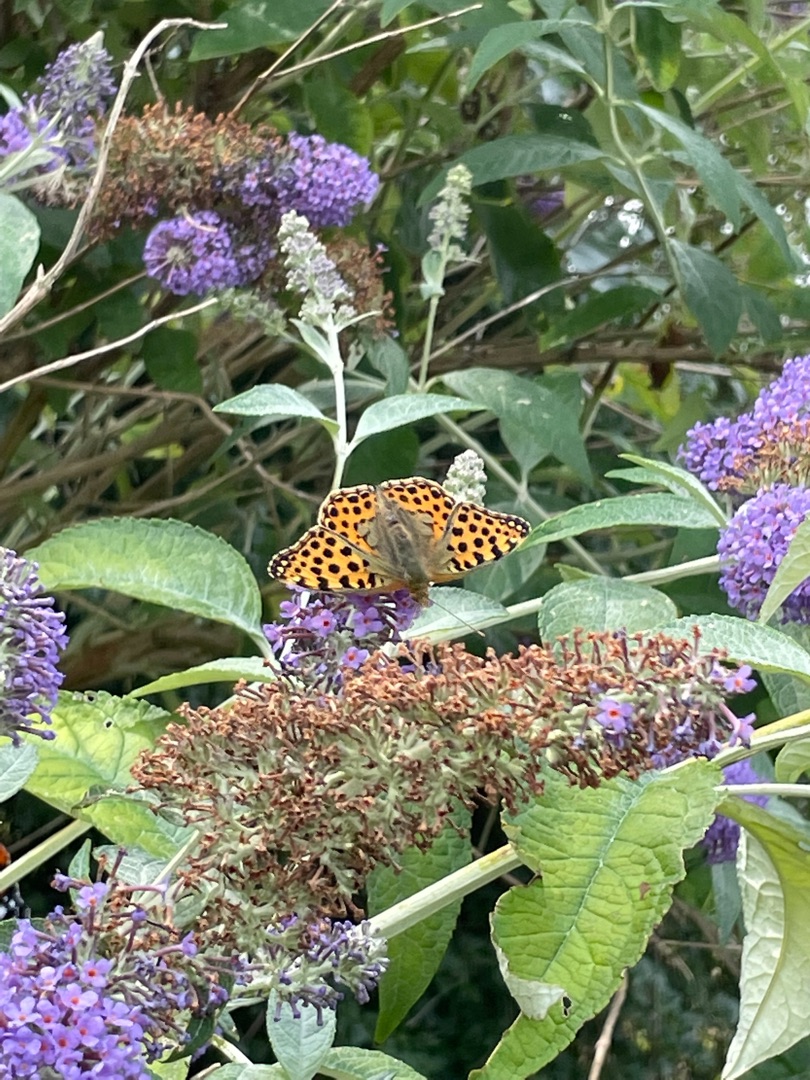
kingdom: Animalia
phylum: Arthropoda
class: Insecta
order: Lepidoptera
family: Nymphalidae
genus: Issoria
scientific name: Issoria lathonia
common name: Storplettet perlemorsommerfugl
